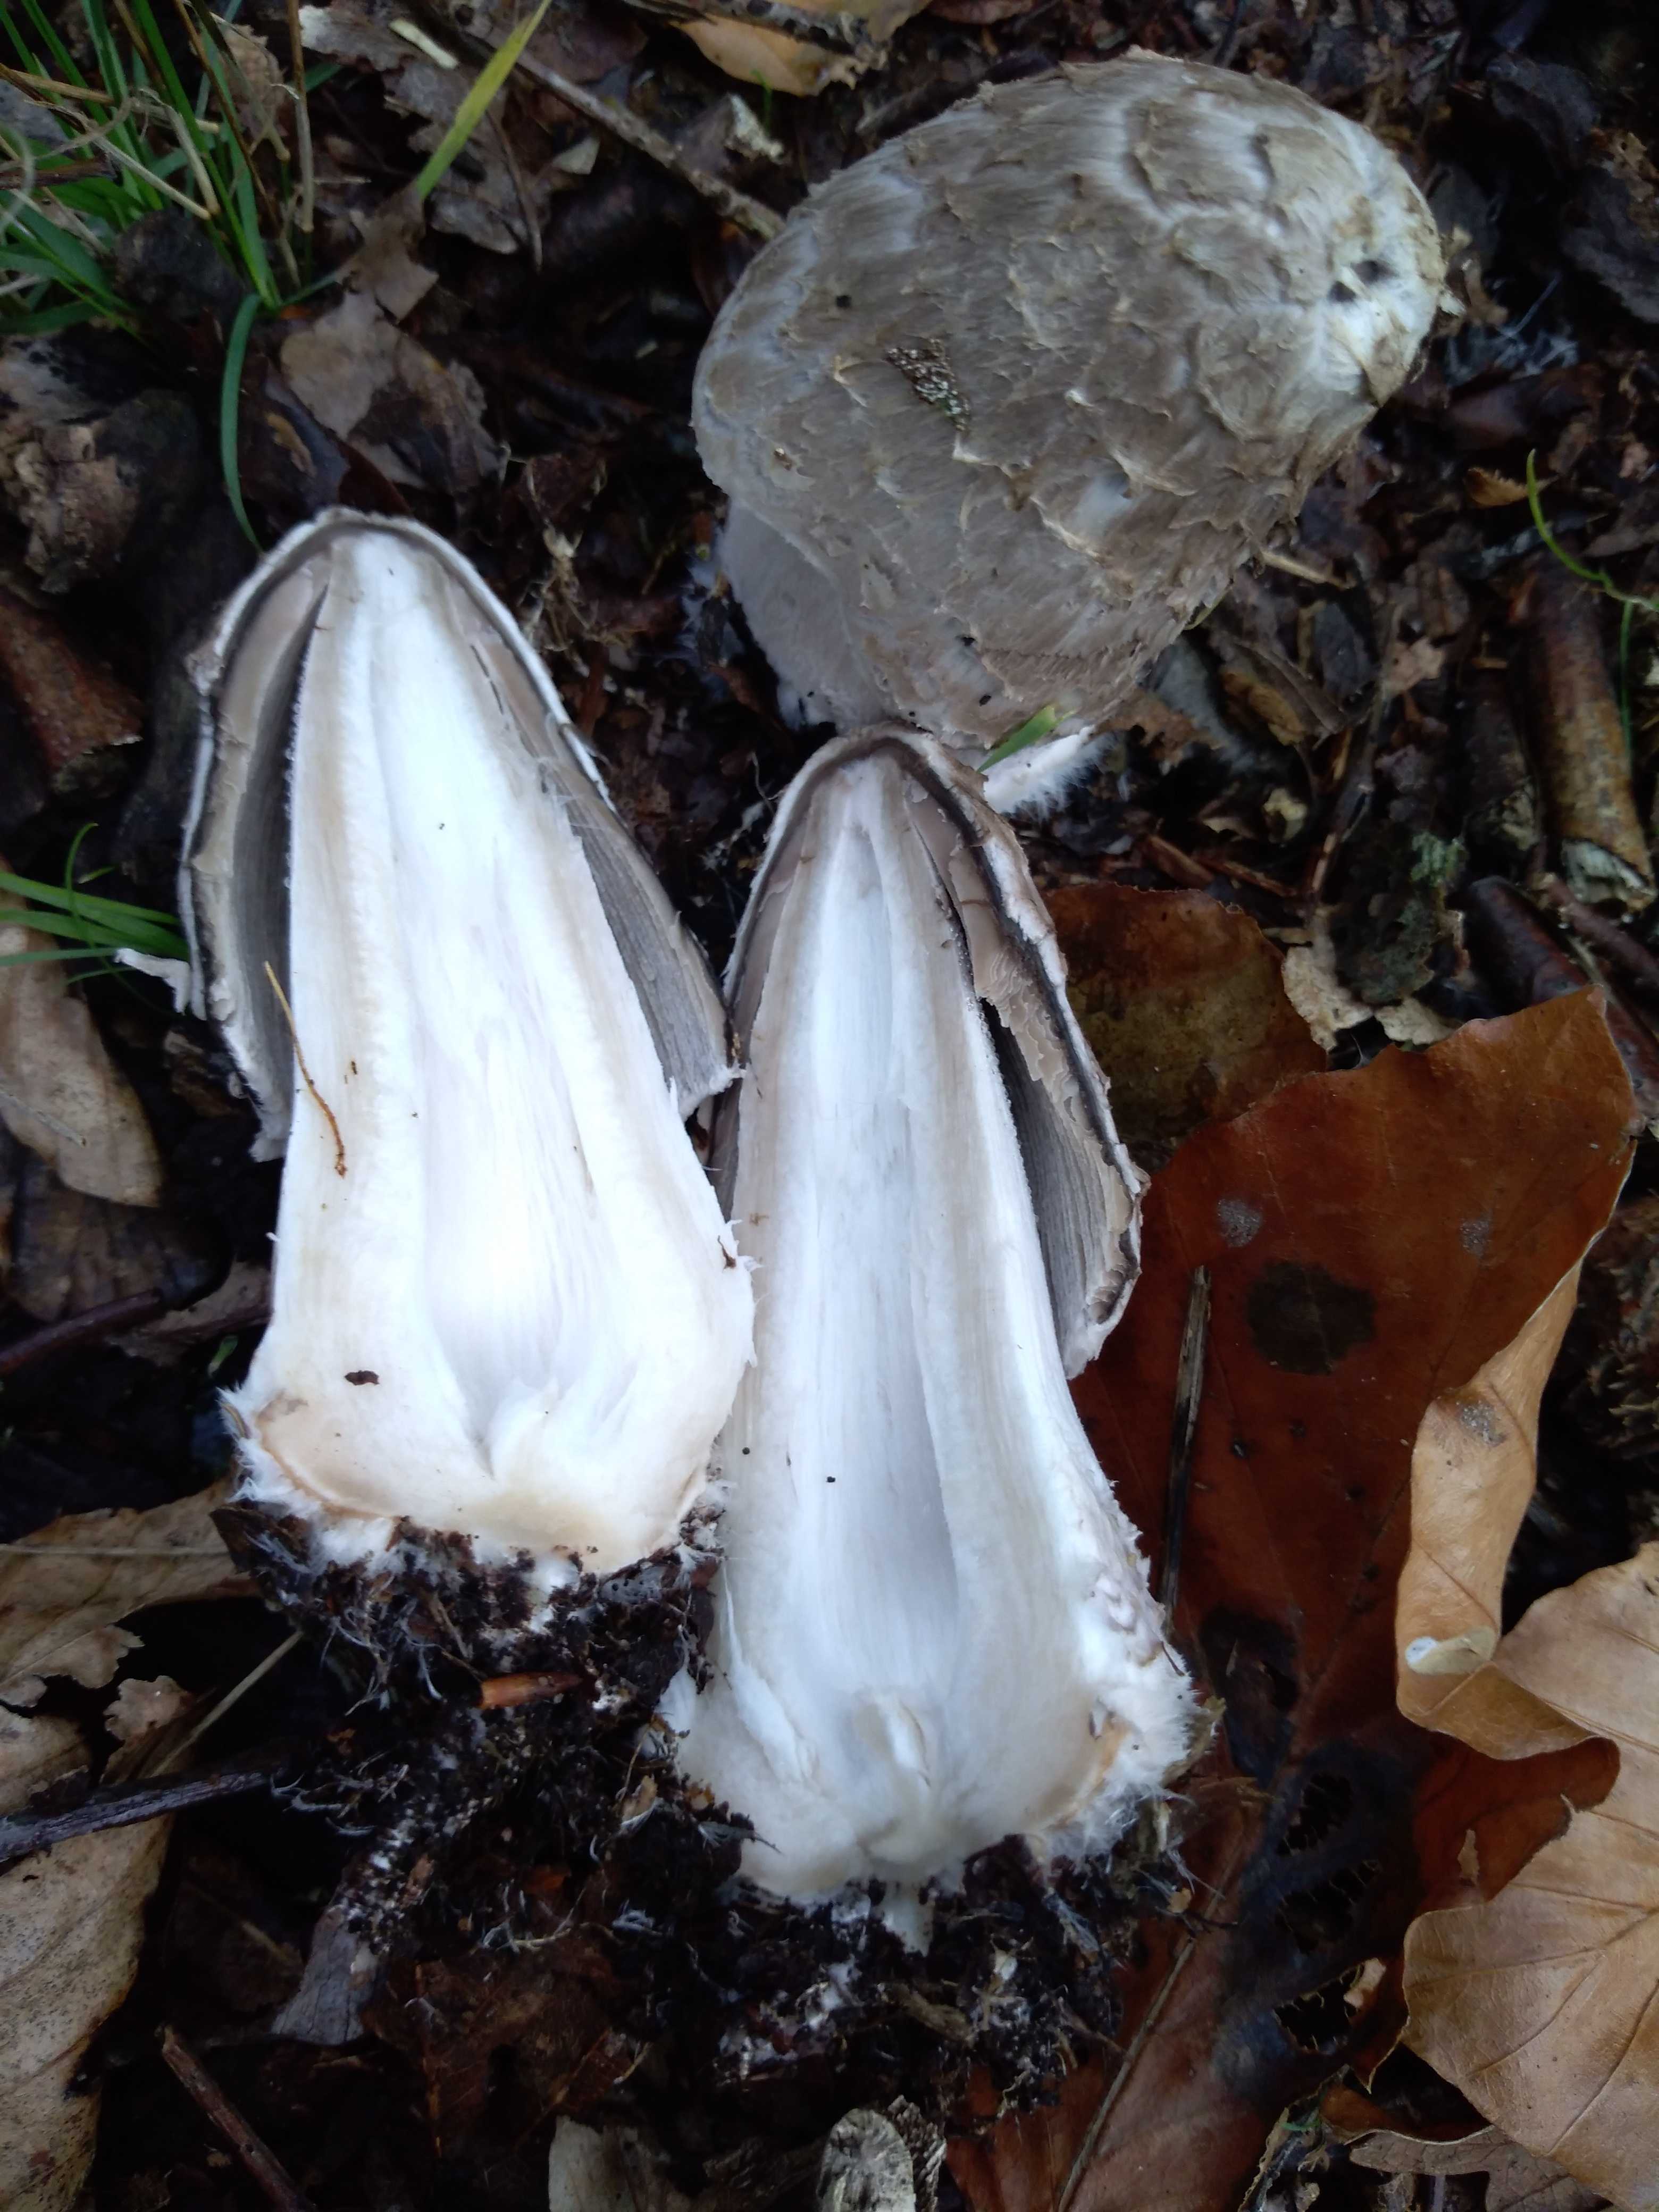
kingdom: Fungi
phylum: Basidiomycota
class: Agaricomycetes
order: Agaricales
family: Psathyrellaceae
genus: Coprinopsis
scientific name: Coprinopsis picacea
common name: skade-blækhat
